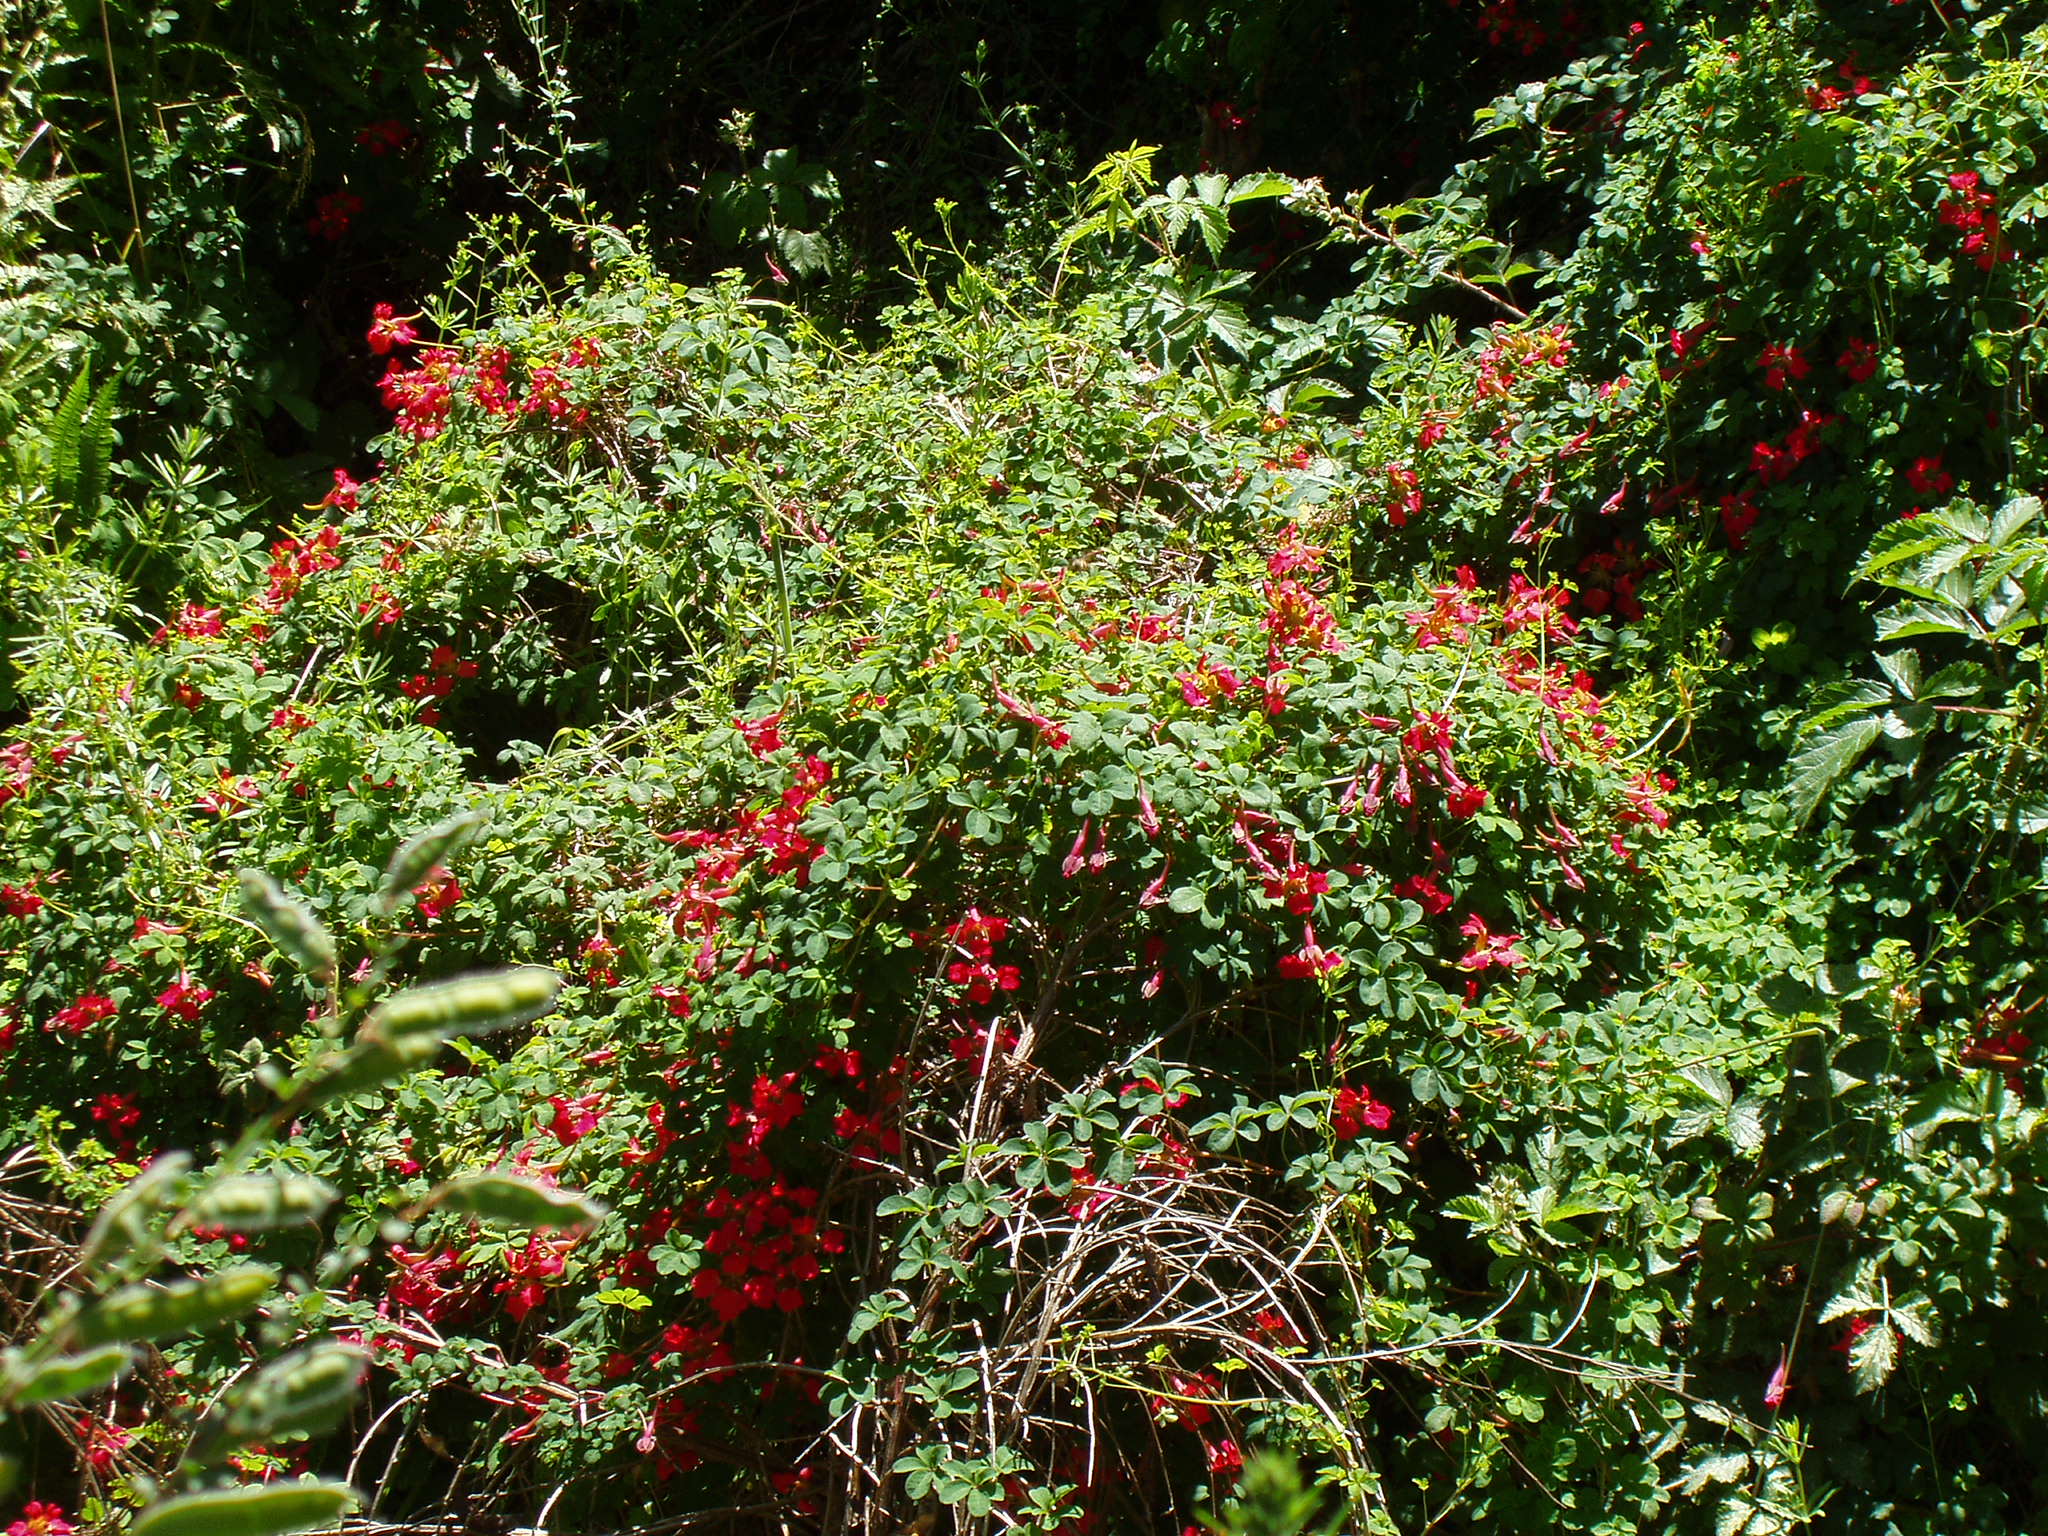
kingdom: Plantae
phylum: Tracheophyta
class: Magnoliopsida
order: Brassicales
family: Tropaeolaceae
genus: Tropaeolum
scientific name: Tropaeolum speciosum
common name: Flame nasturtium
